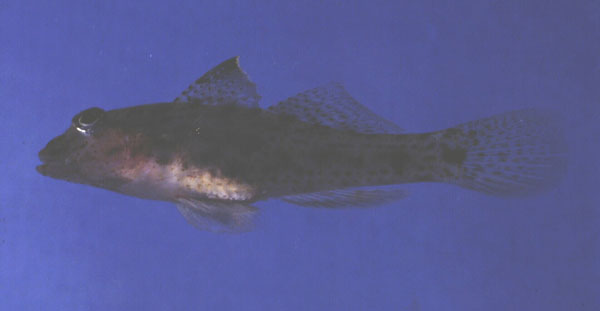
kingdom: Animalia
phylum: Chordata
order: Perciformes
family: Gobiidae
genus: Fusigobius
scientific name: Fusigobius neophytus
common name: Sand goby
